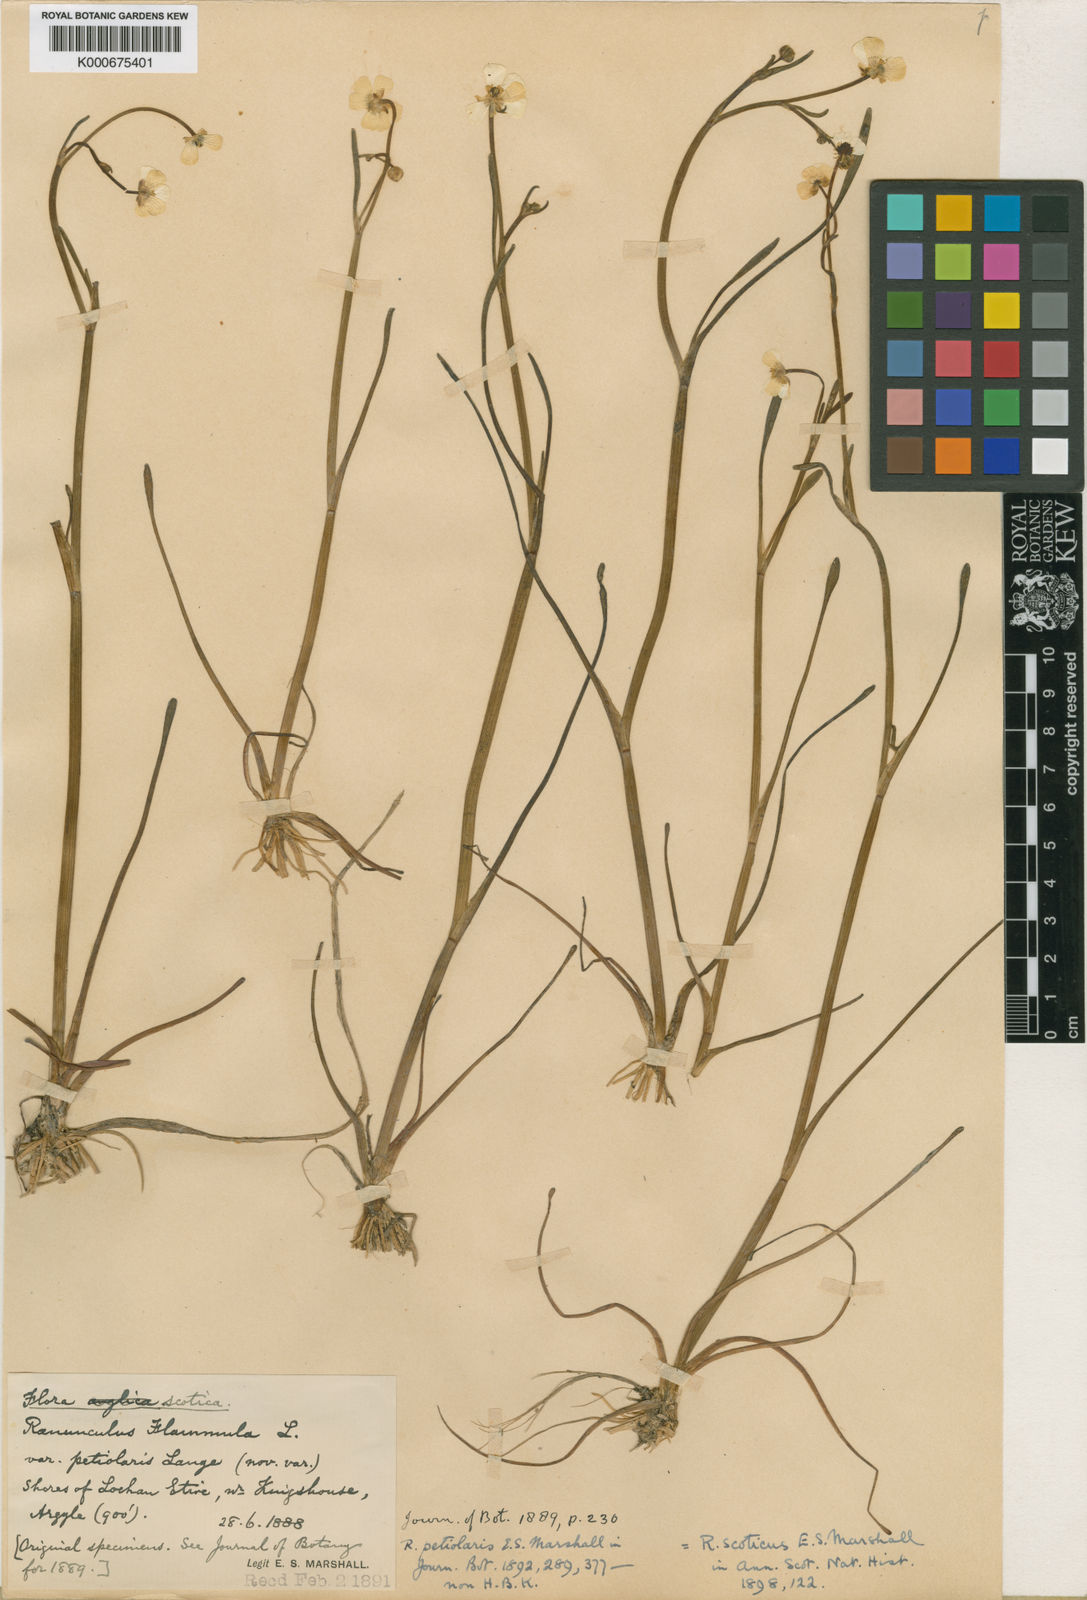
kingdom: Plantae
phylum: Tracheophyta
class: Magnoliopsida
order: Ranunculales
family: Ranunculaceae
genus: Ranunculus
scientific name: Ranunculus flammula
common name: Lesser spearwort
